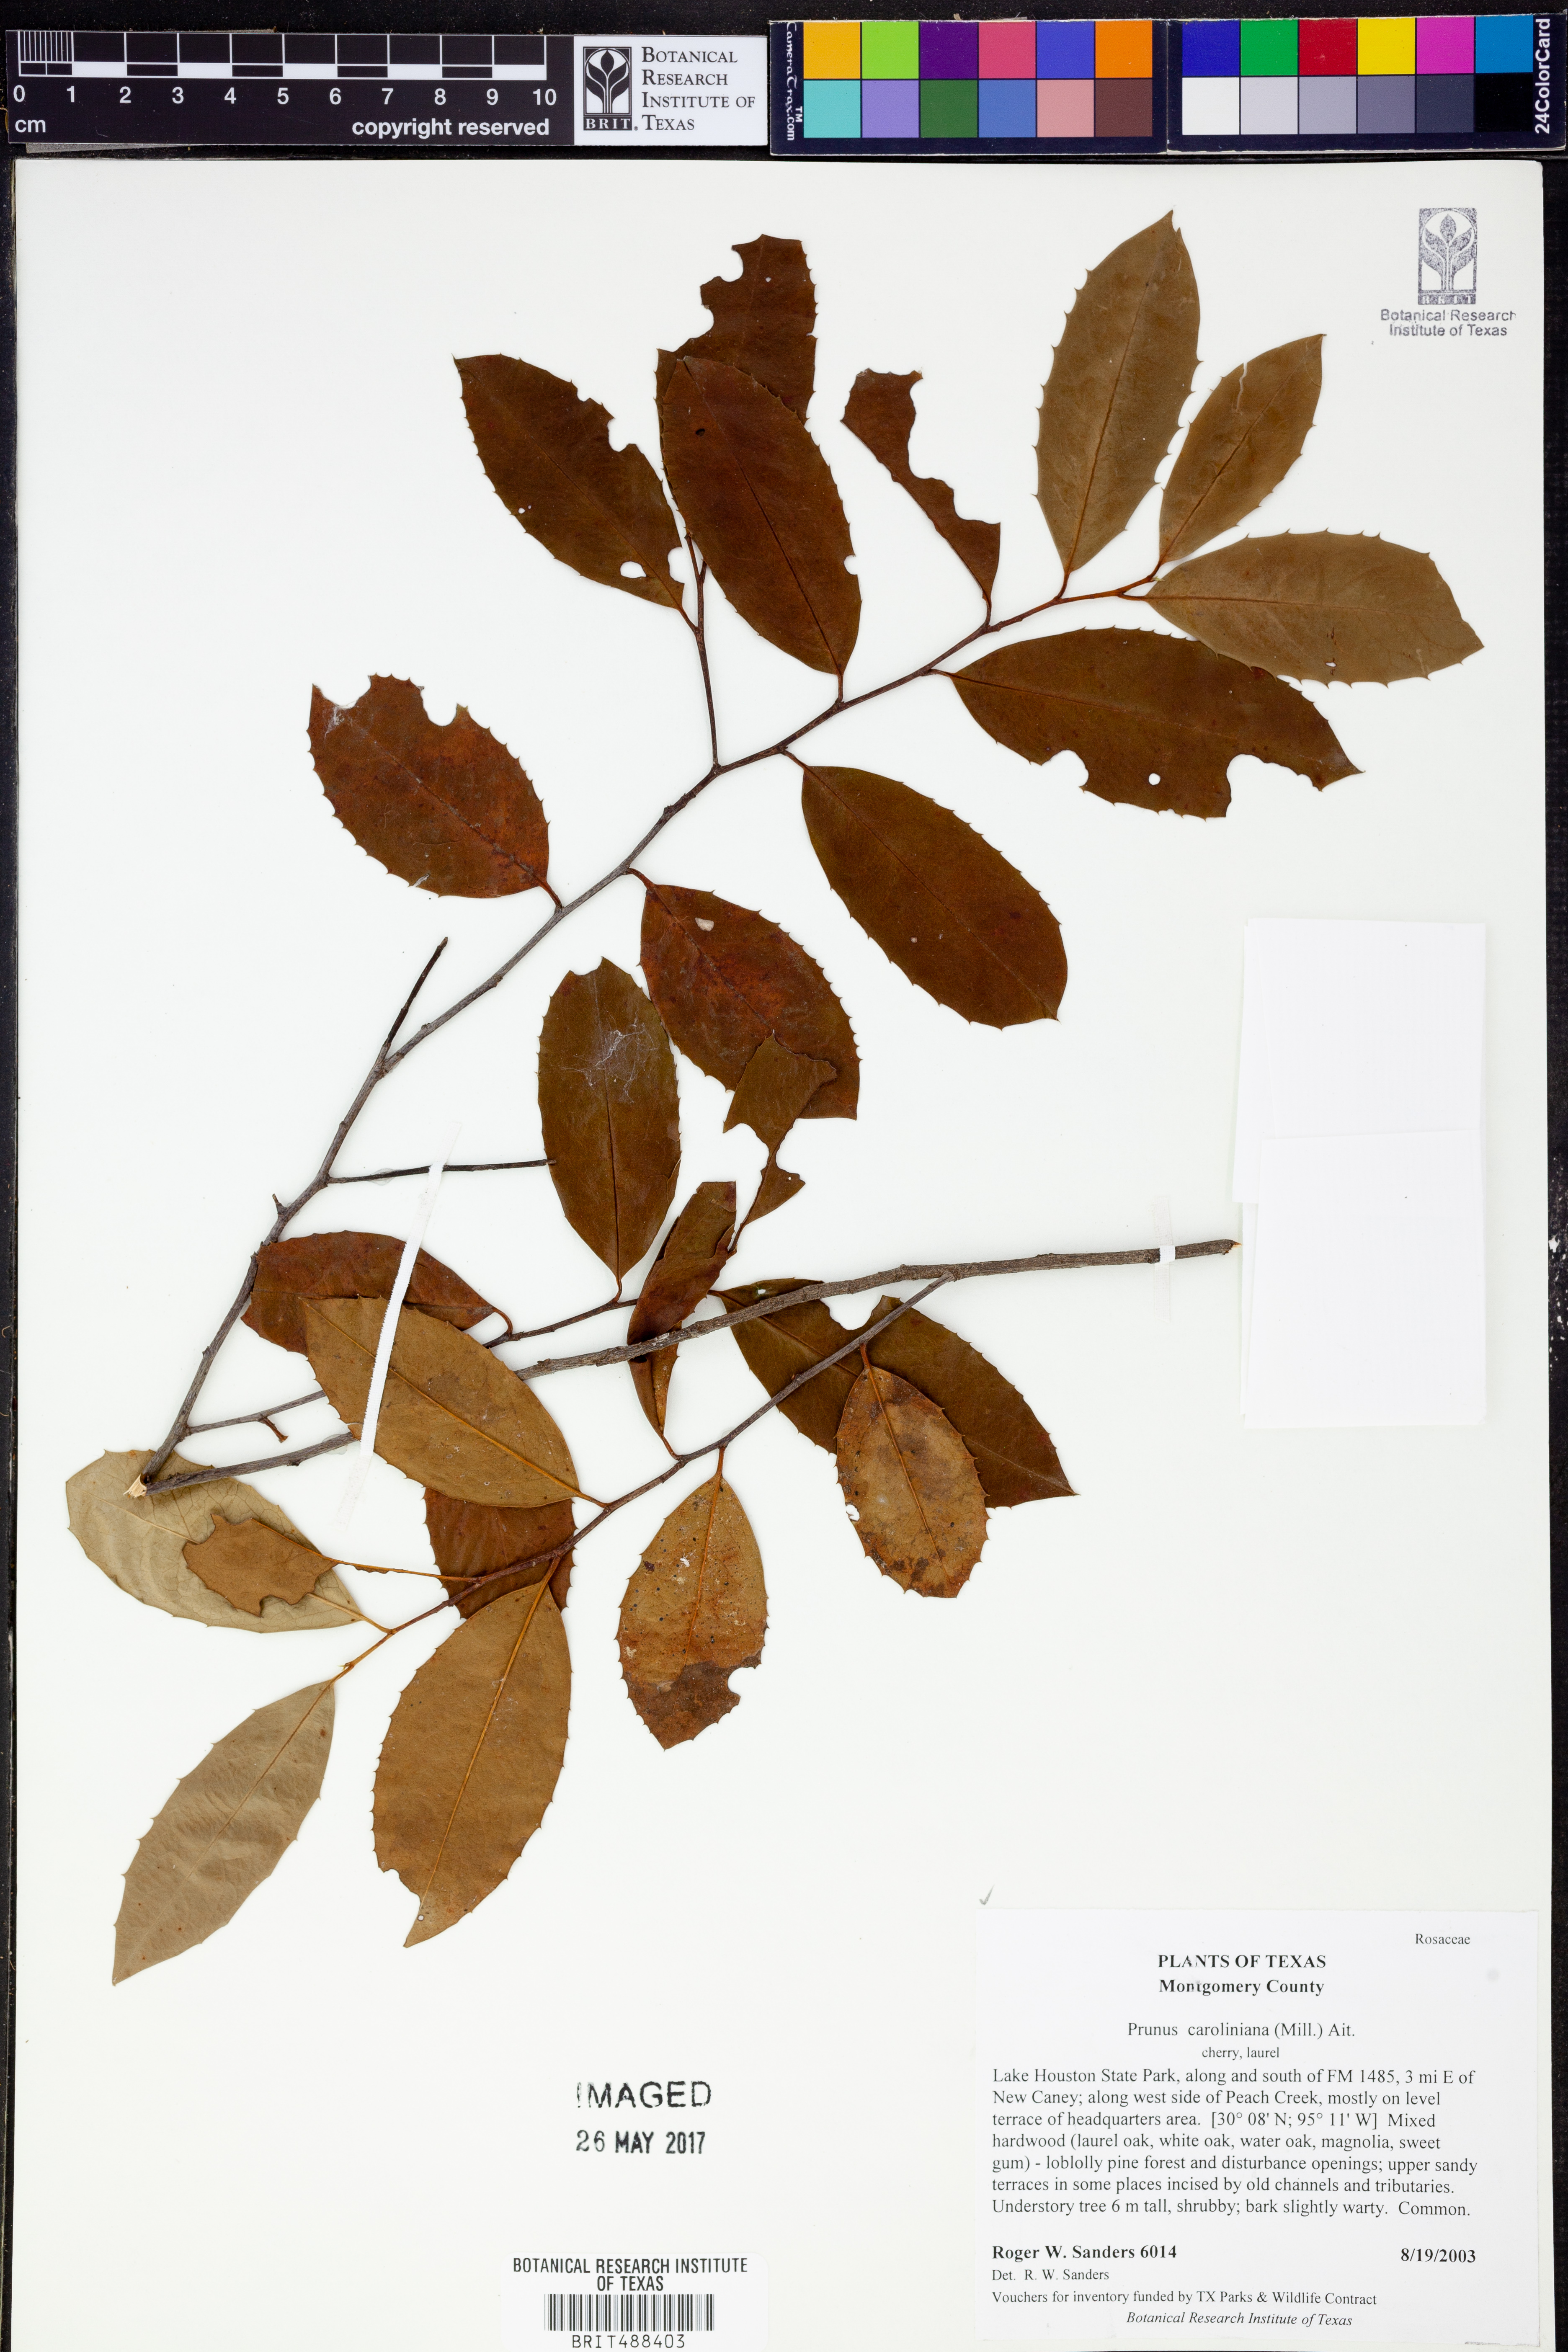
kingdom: Plantae
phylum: Tracheophyta
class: Magnoliopsida
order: Rosales
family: Rosaceae
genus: Prunus
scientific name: Prunus caroliniana
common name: Carolina laurel cherry
